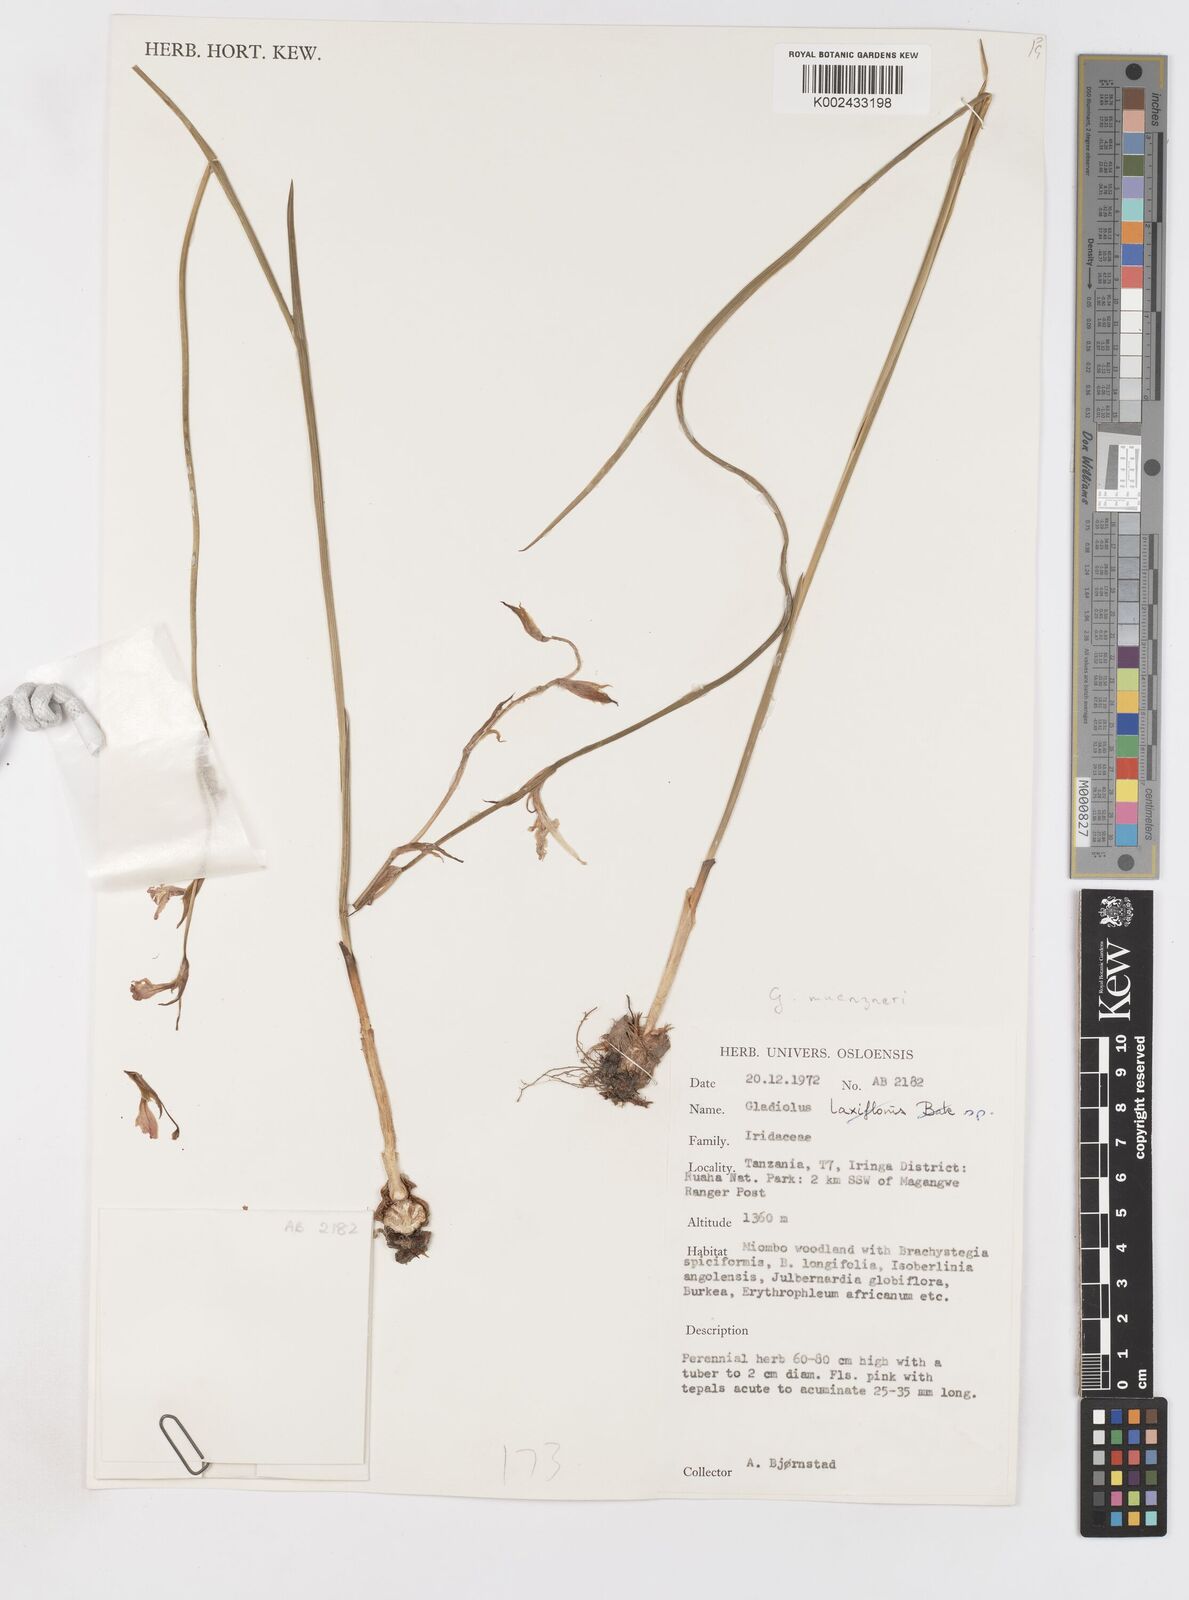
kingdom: Plantae
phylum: Tracheophyta
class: Liliopsida
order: Asparagales
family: Iridaceae
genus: Gladiolus
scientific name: Gladiolus muenzneri
